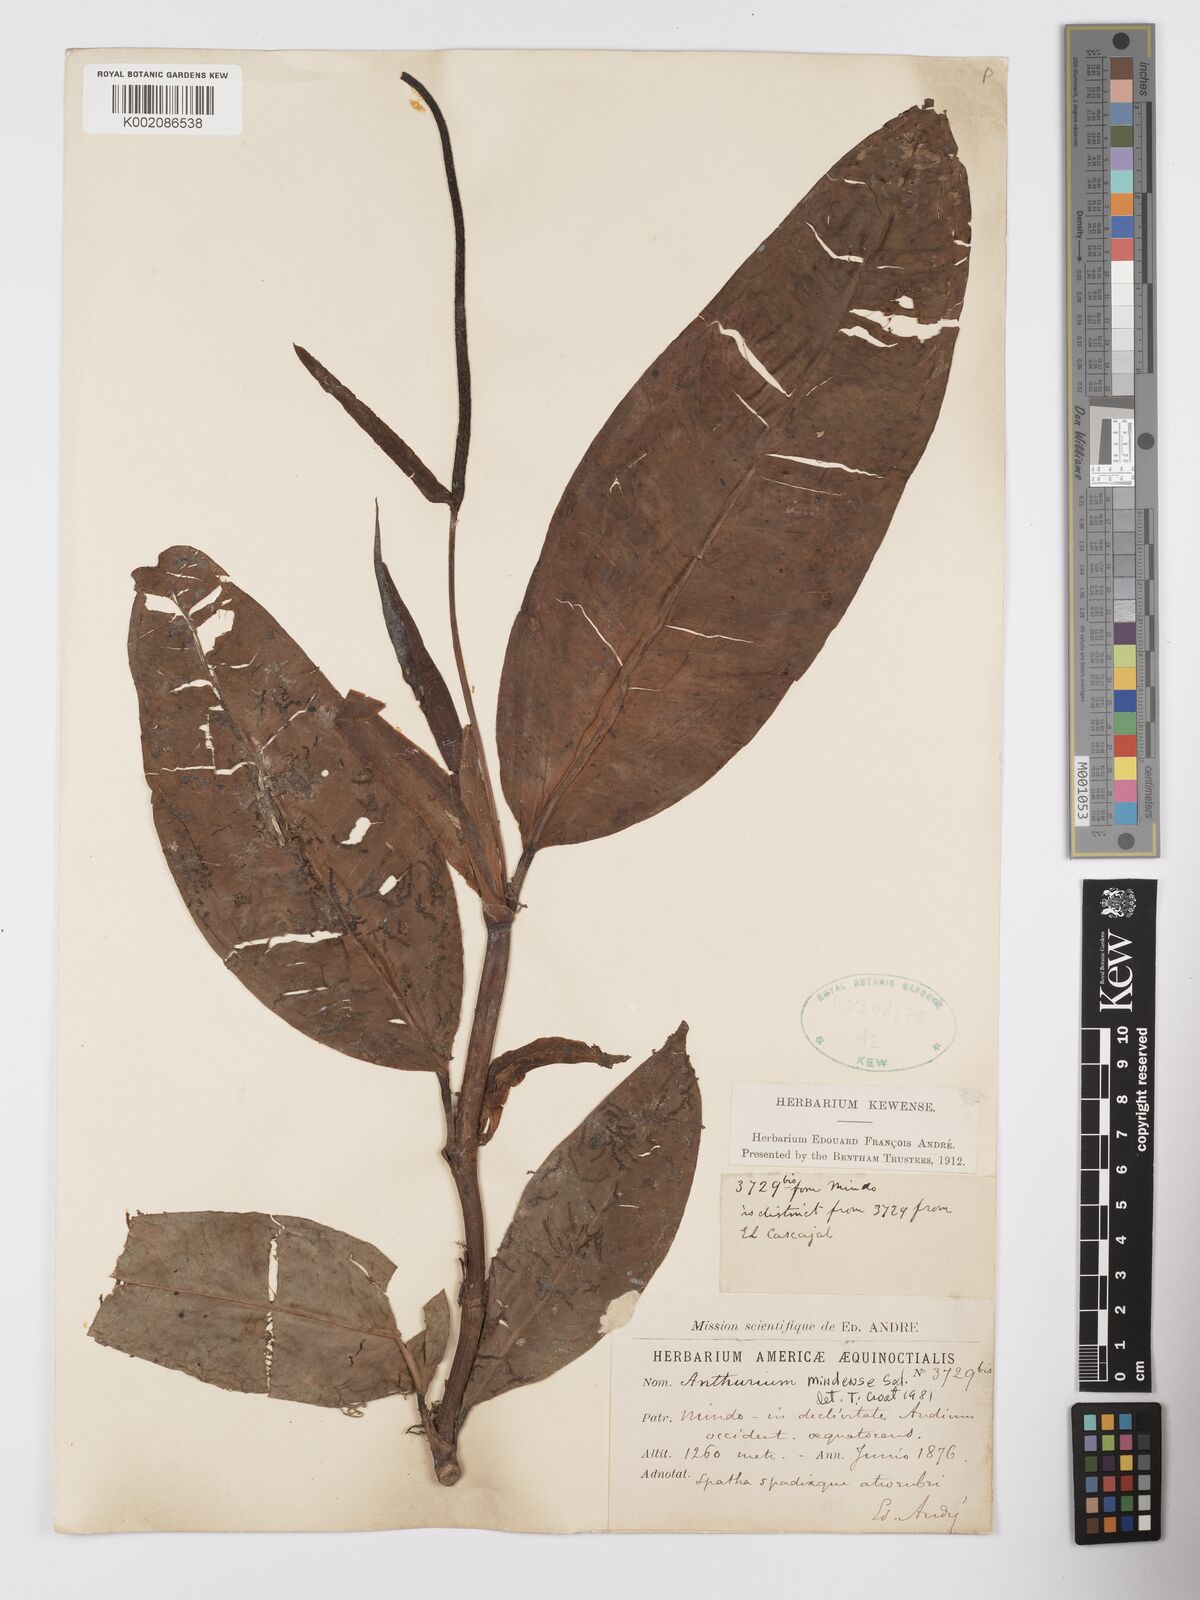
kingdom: Plantae
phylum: Tracheophyta
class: Liliopsida
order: Alismatales
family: Araceae
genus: Anthurium
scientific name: Anthurium mindense
